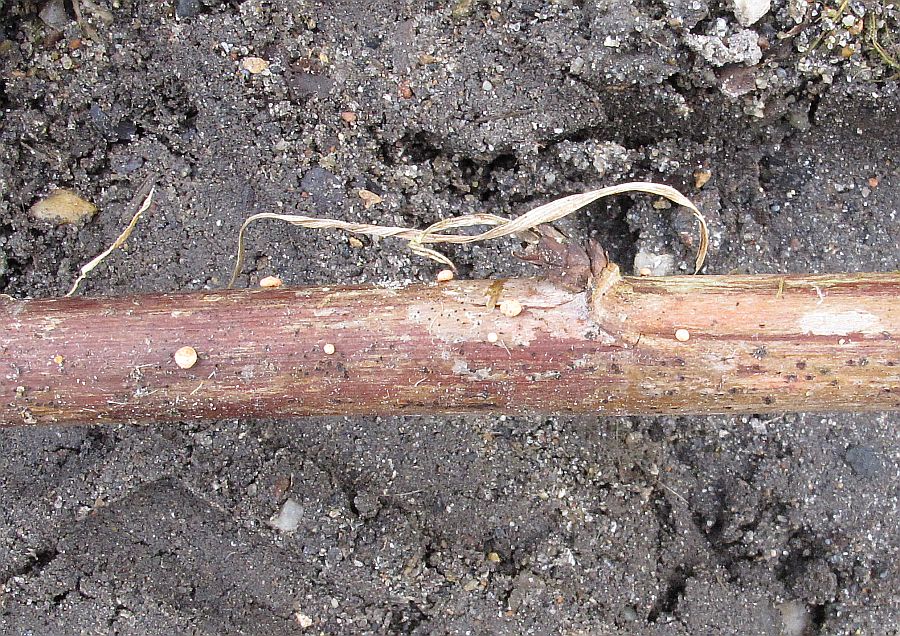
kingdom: Fungi
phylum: Ascomycota
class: Sordariomycetes
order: Hypocreales
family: Nectriaceae
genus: Nectria
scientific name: Nectria cinnabarina
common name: almindelig cinnobersvamp
